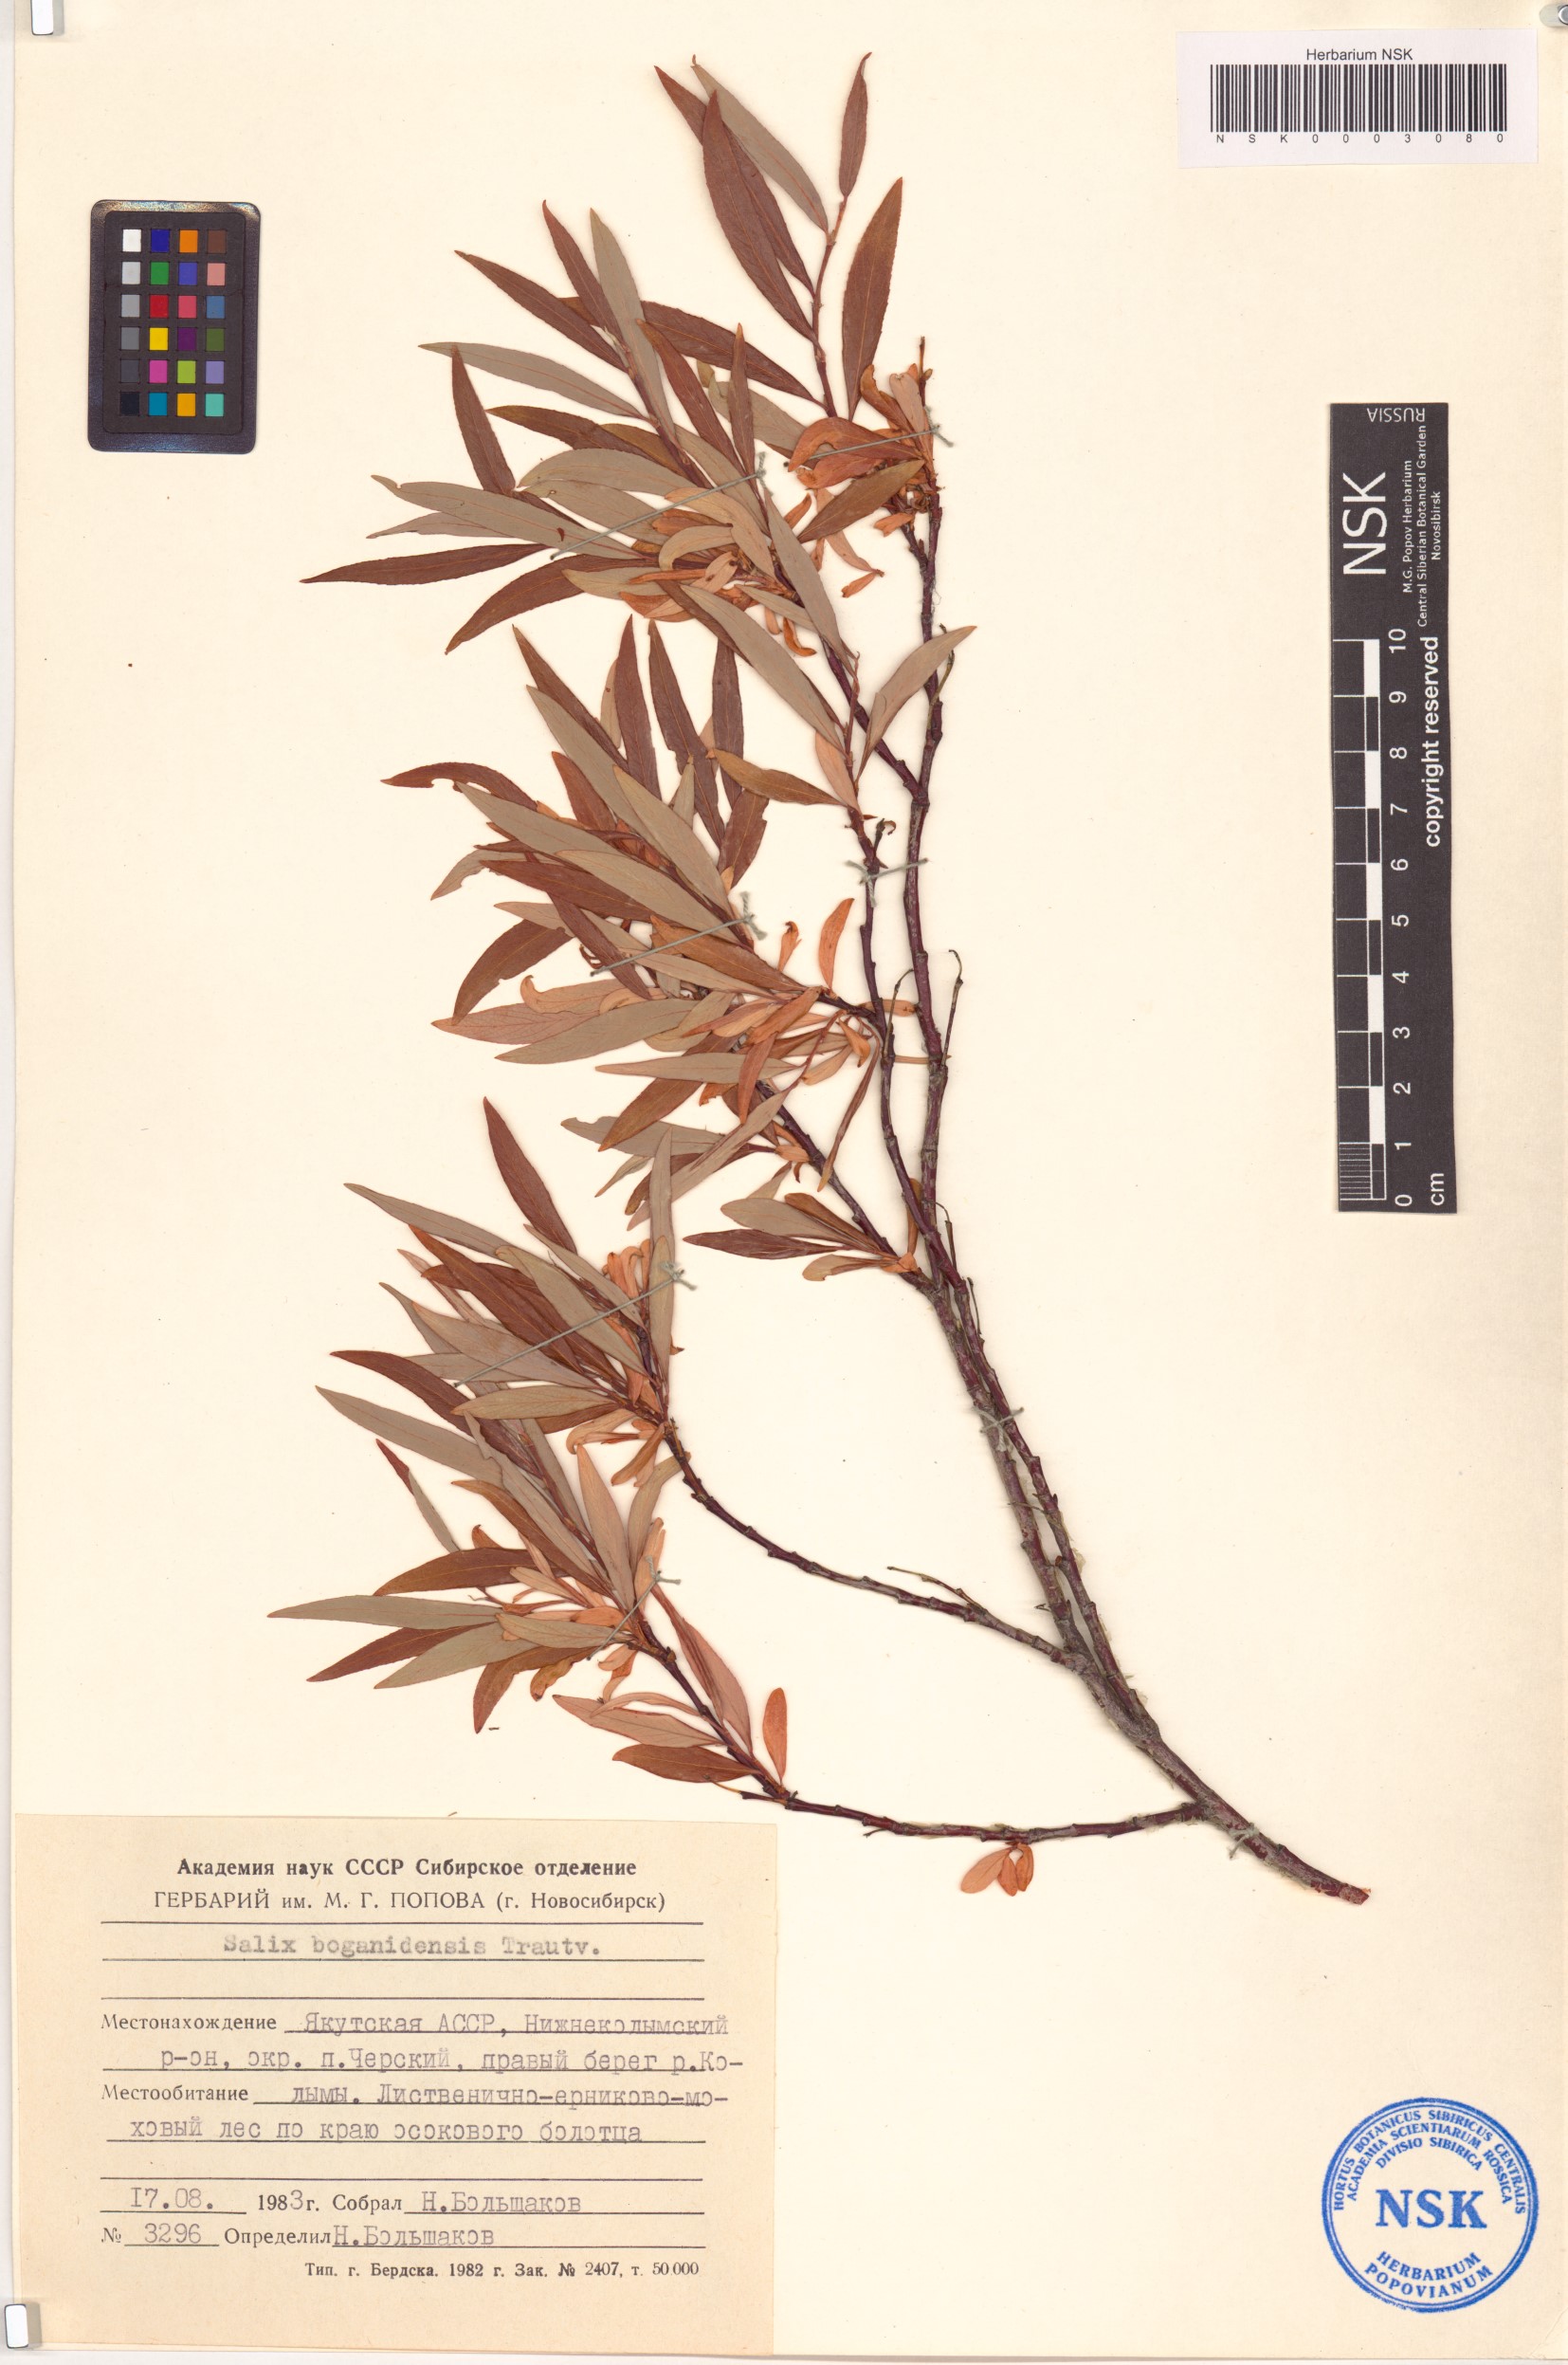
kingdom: Plantae
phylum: Tracheophyta
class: Magnoliopsida
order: Malpighiales
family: Salicaceae
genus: Salix
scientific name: Salix boganidensis
